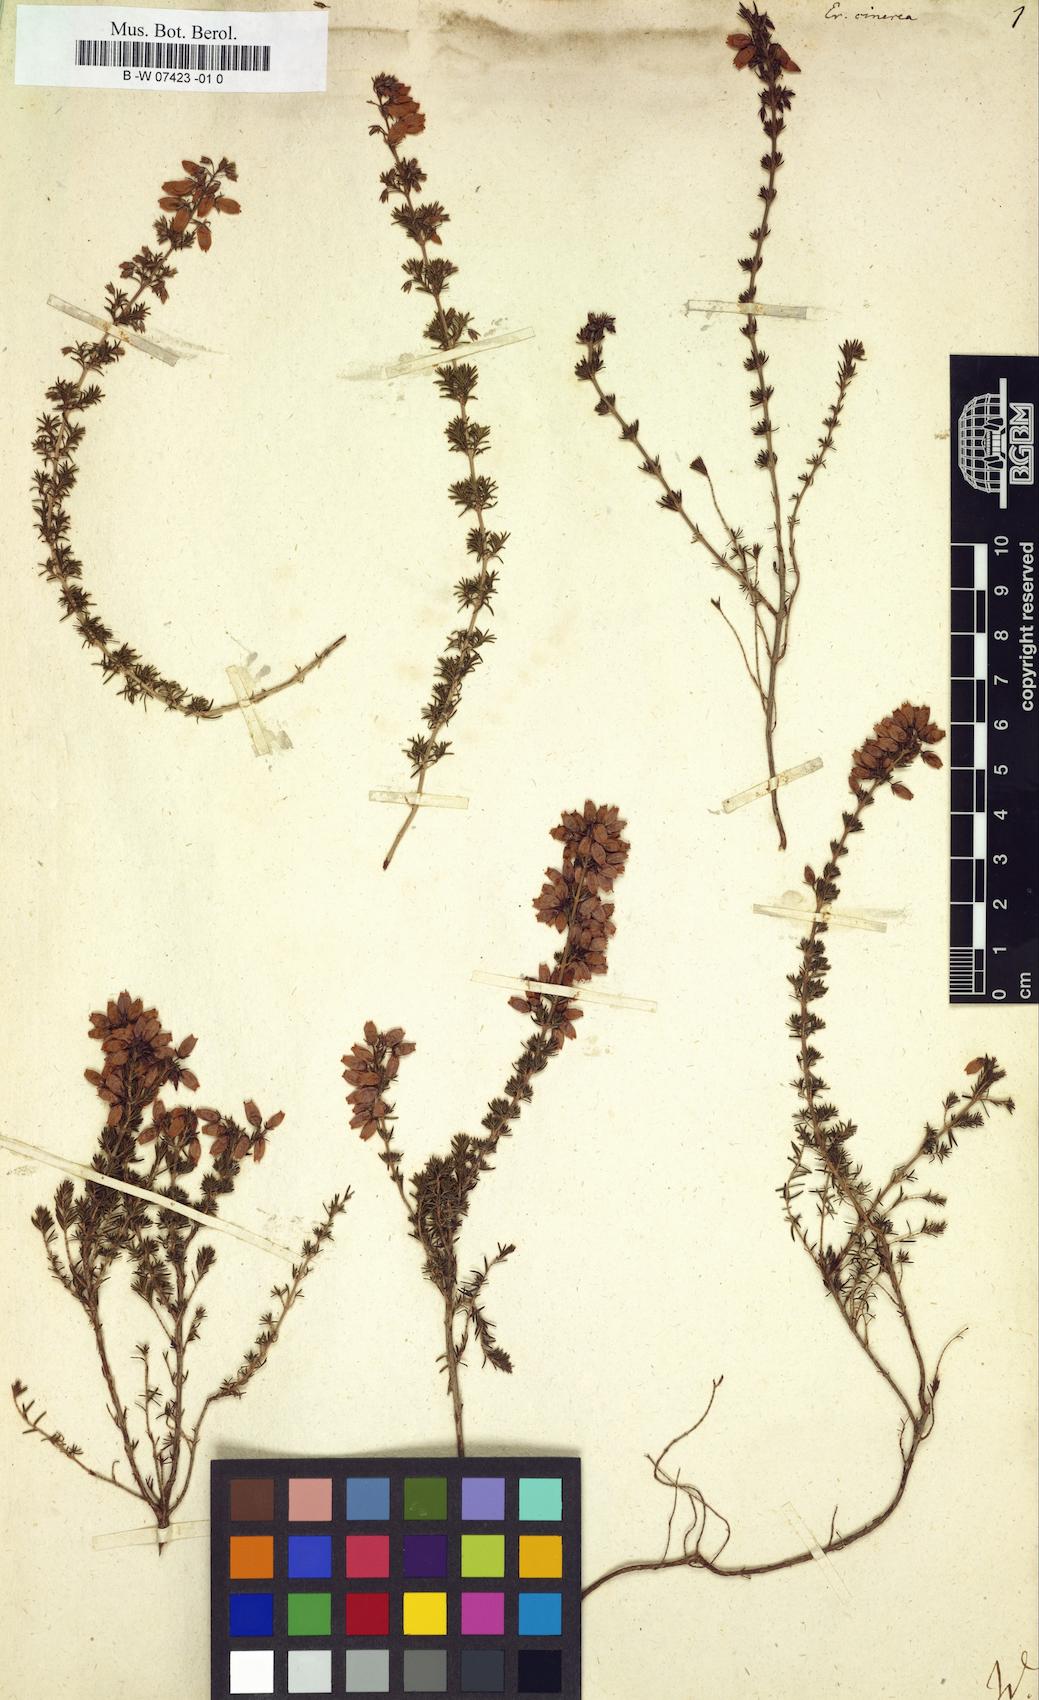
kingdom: Plantae
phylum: Tracheophyta
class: Magnoliopsida
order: Ericales
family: Ericaceae
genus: Erica
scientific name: Erica cinerea
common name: Bell heather
